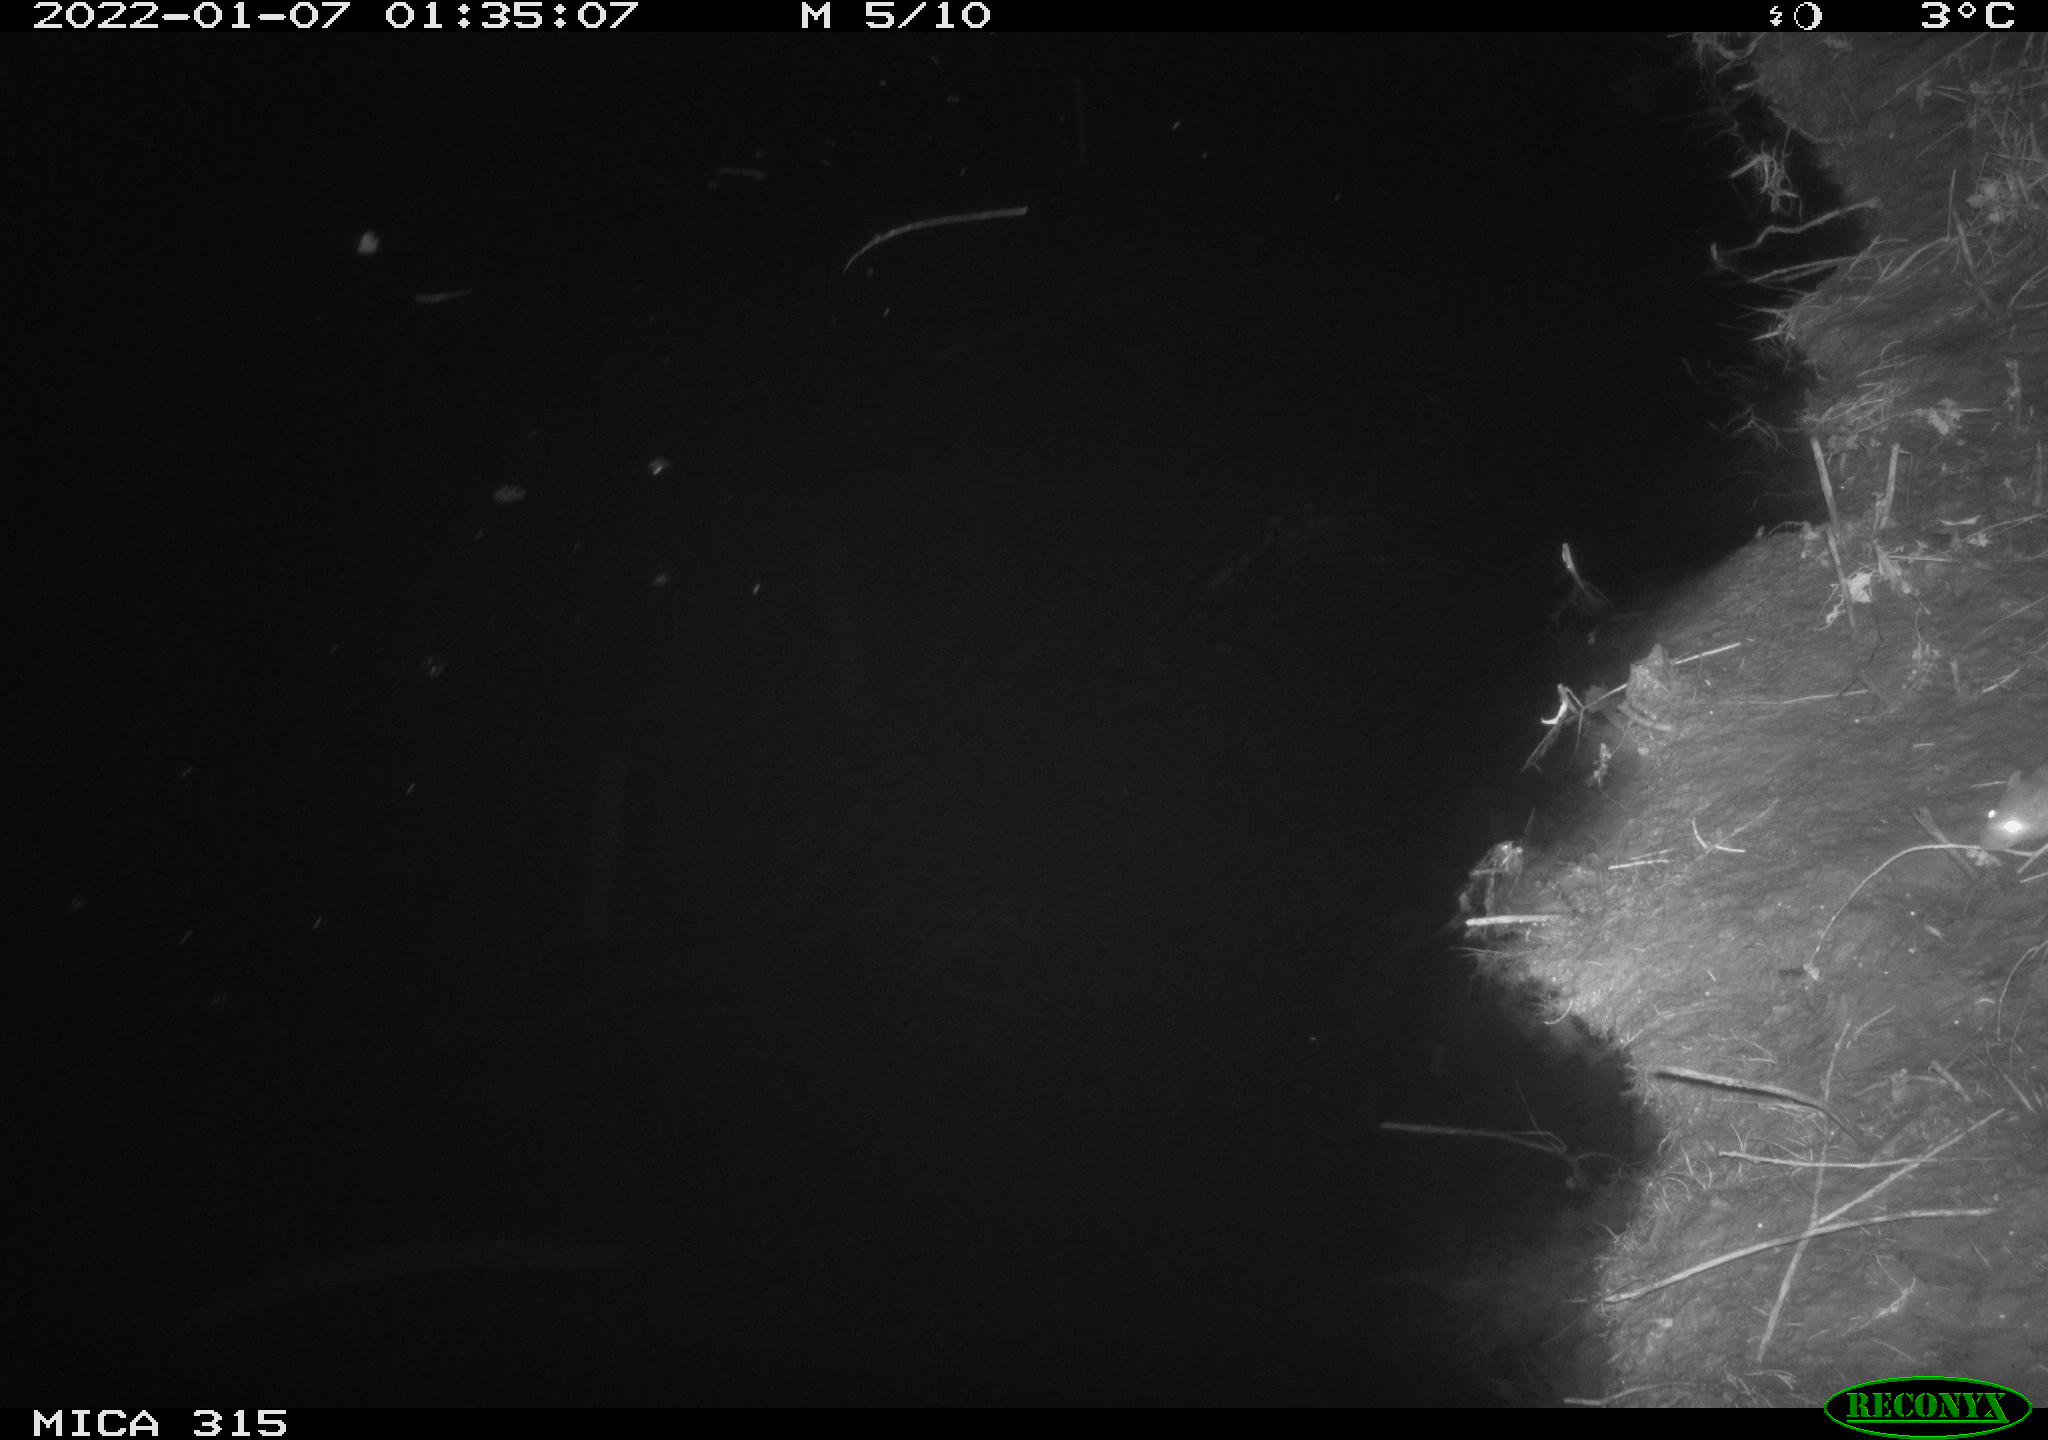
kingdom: Animalia
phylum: Chordata
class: Mammalia
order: Rodentia
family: Muridae
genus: Rattus
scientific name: Rattus norvegicus
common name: Brown rat
